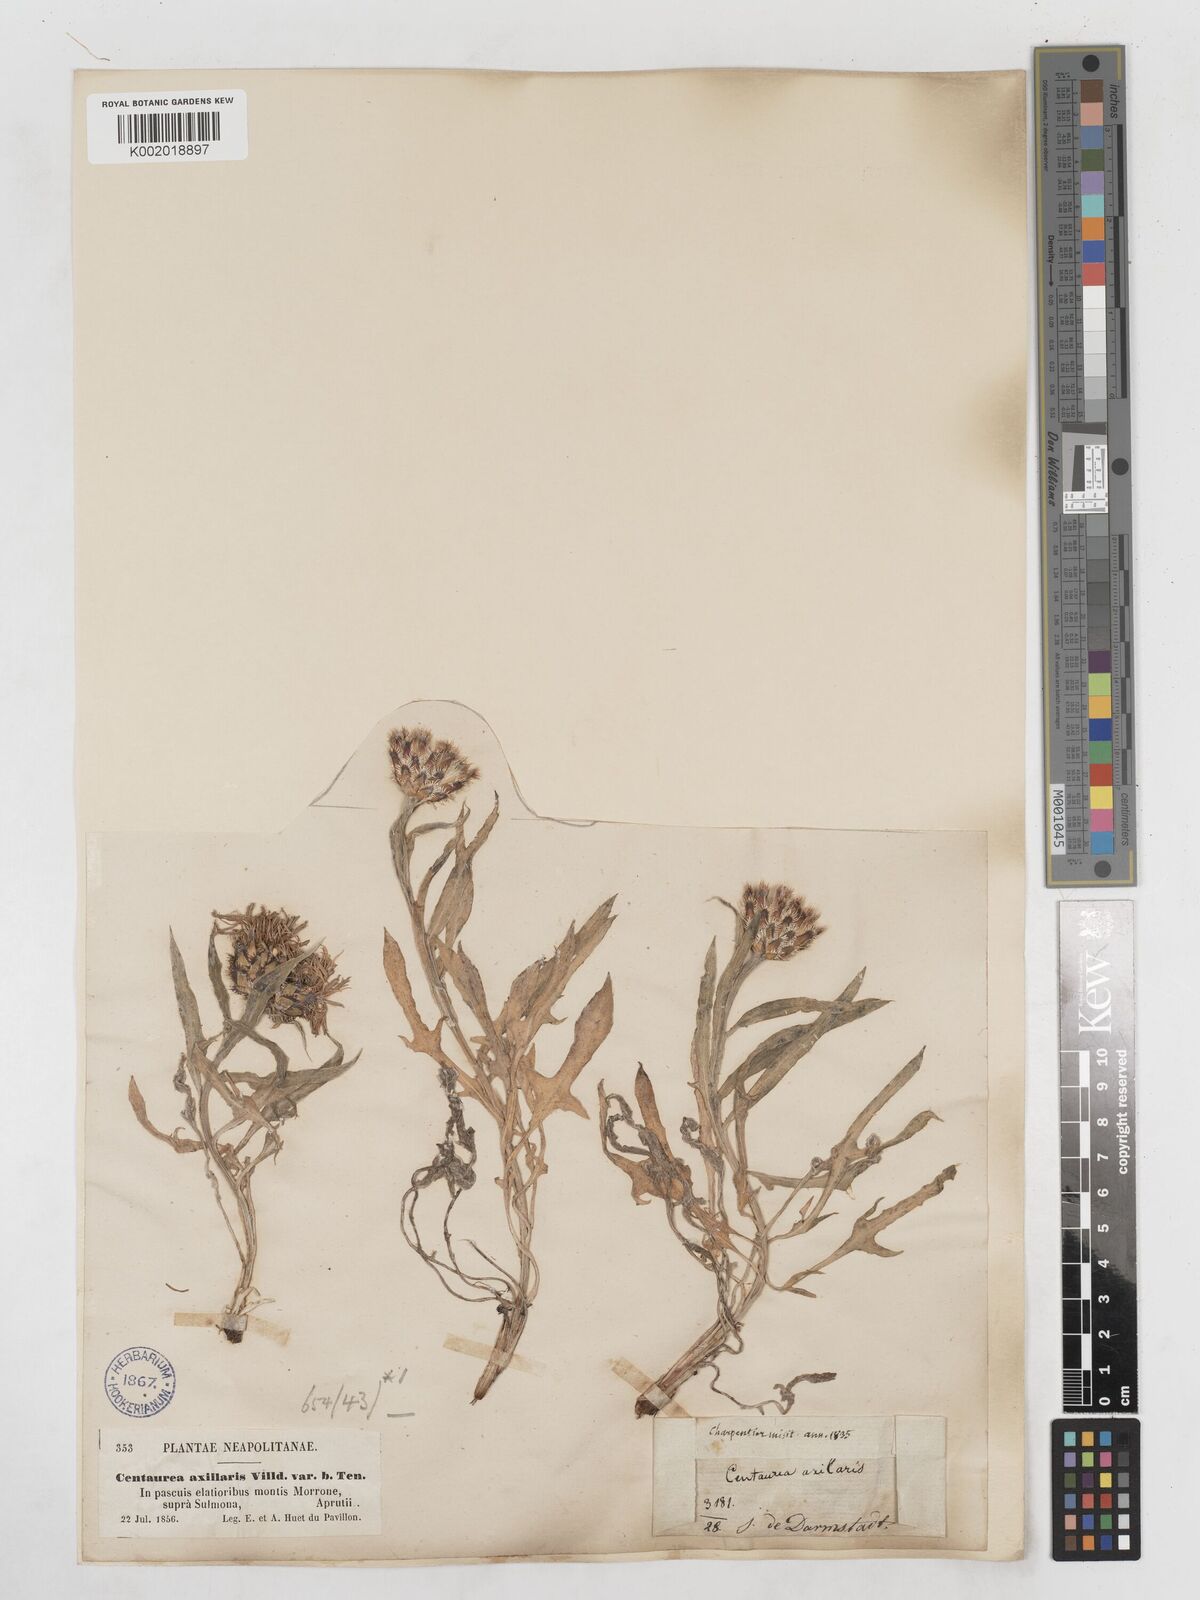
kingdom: Plantae
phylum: Tracheophyta
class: Magnoliopsida
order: Asterales
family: Asteraceae
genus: Centaurea
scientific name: Centaurea triumfettii
